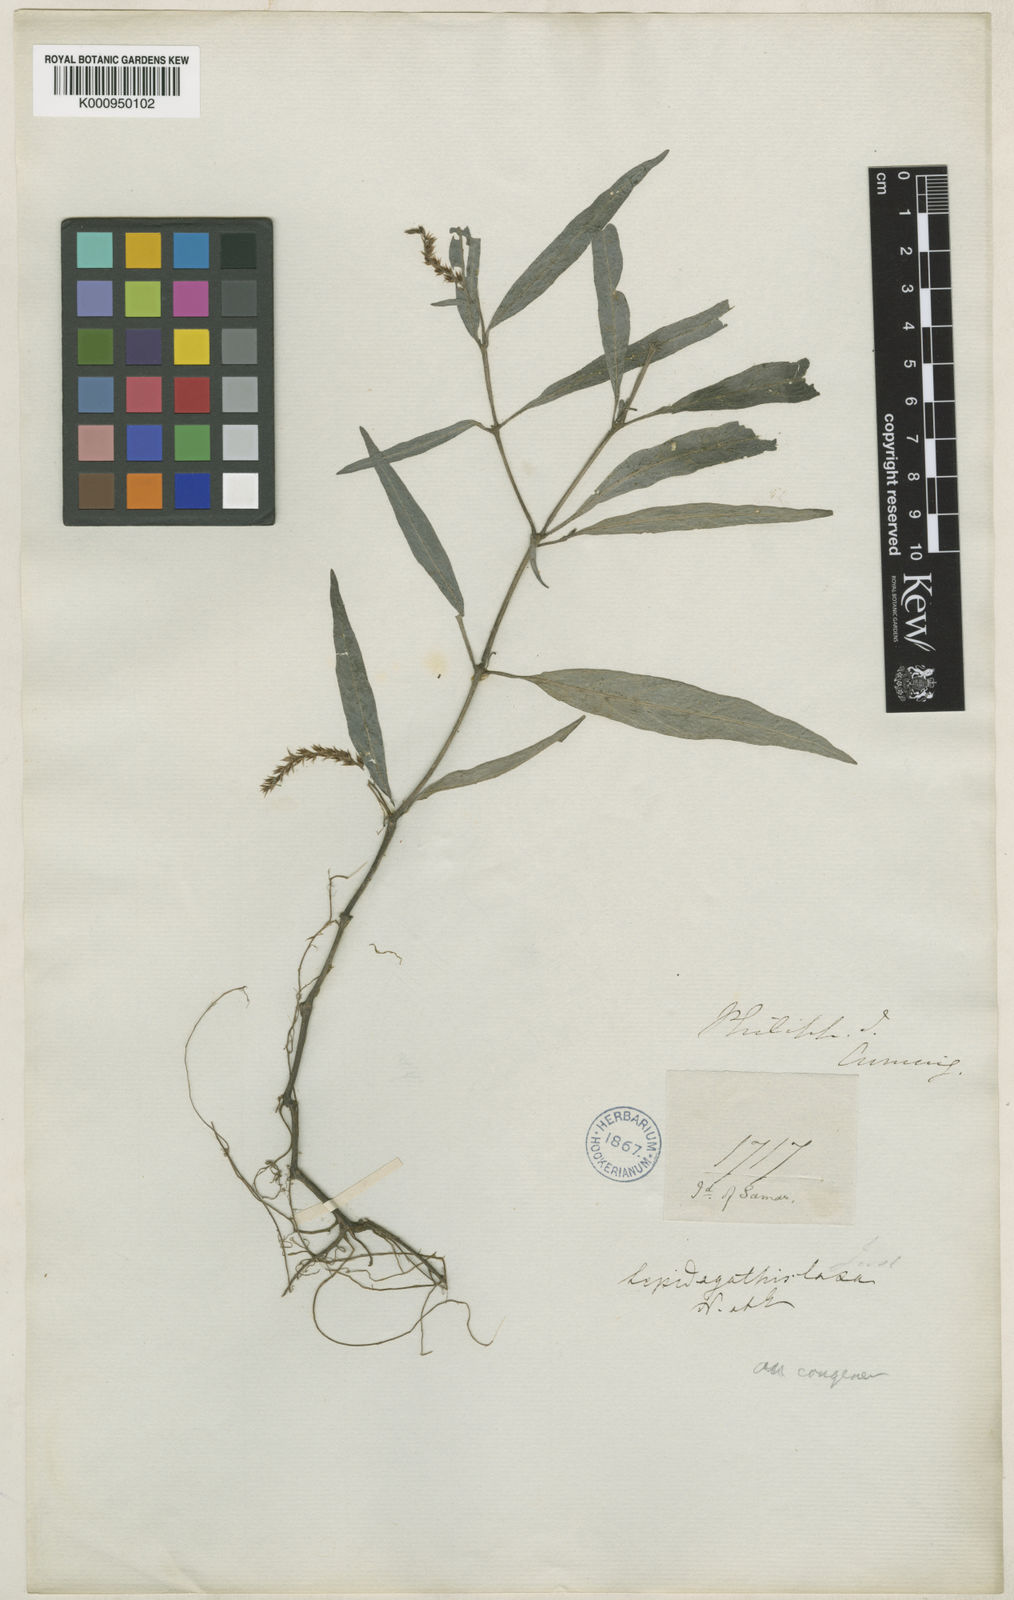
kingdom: Plantae
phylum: Tracheophyta
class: Magnoliopsida
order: Lamiales
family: Acanthaceae
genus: Lepidagathis
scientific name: Lepidagathis laxa
